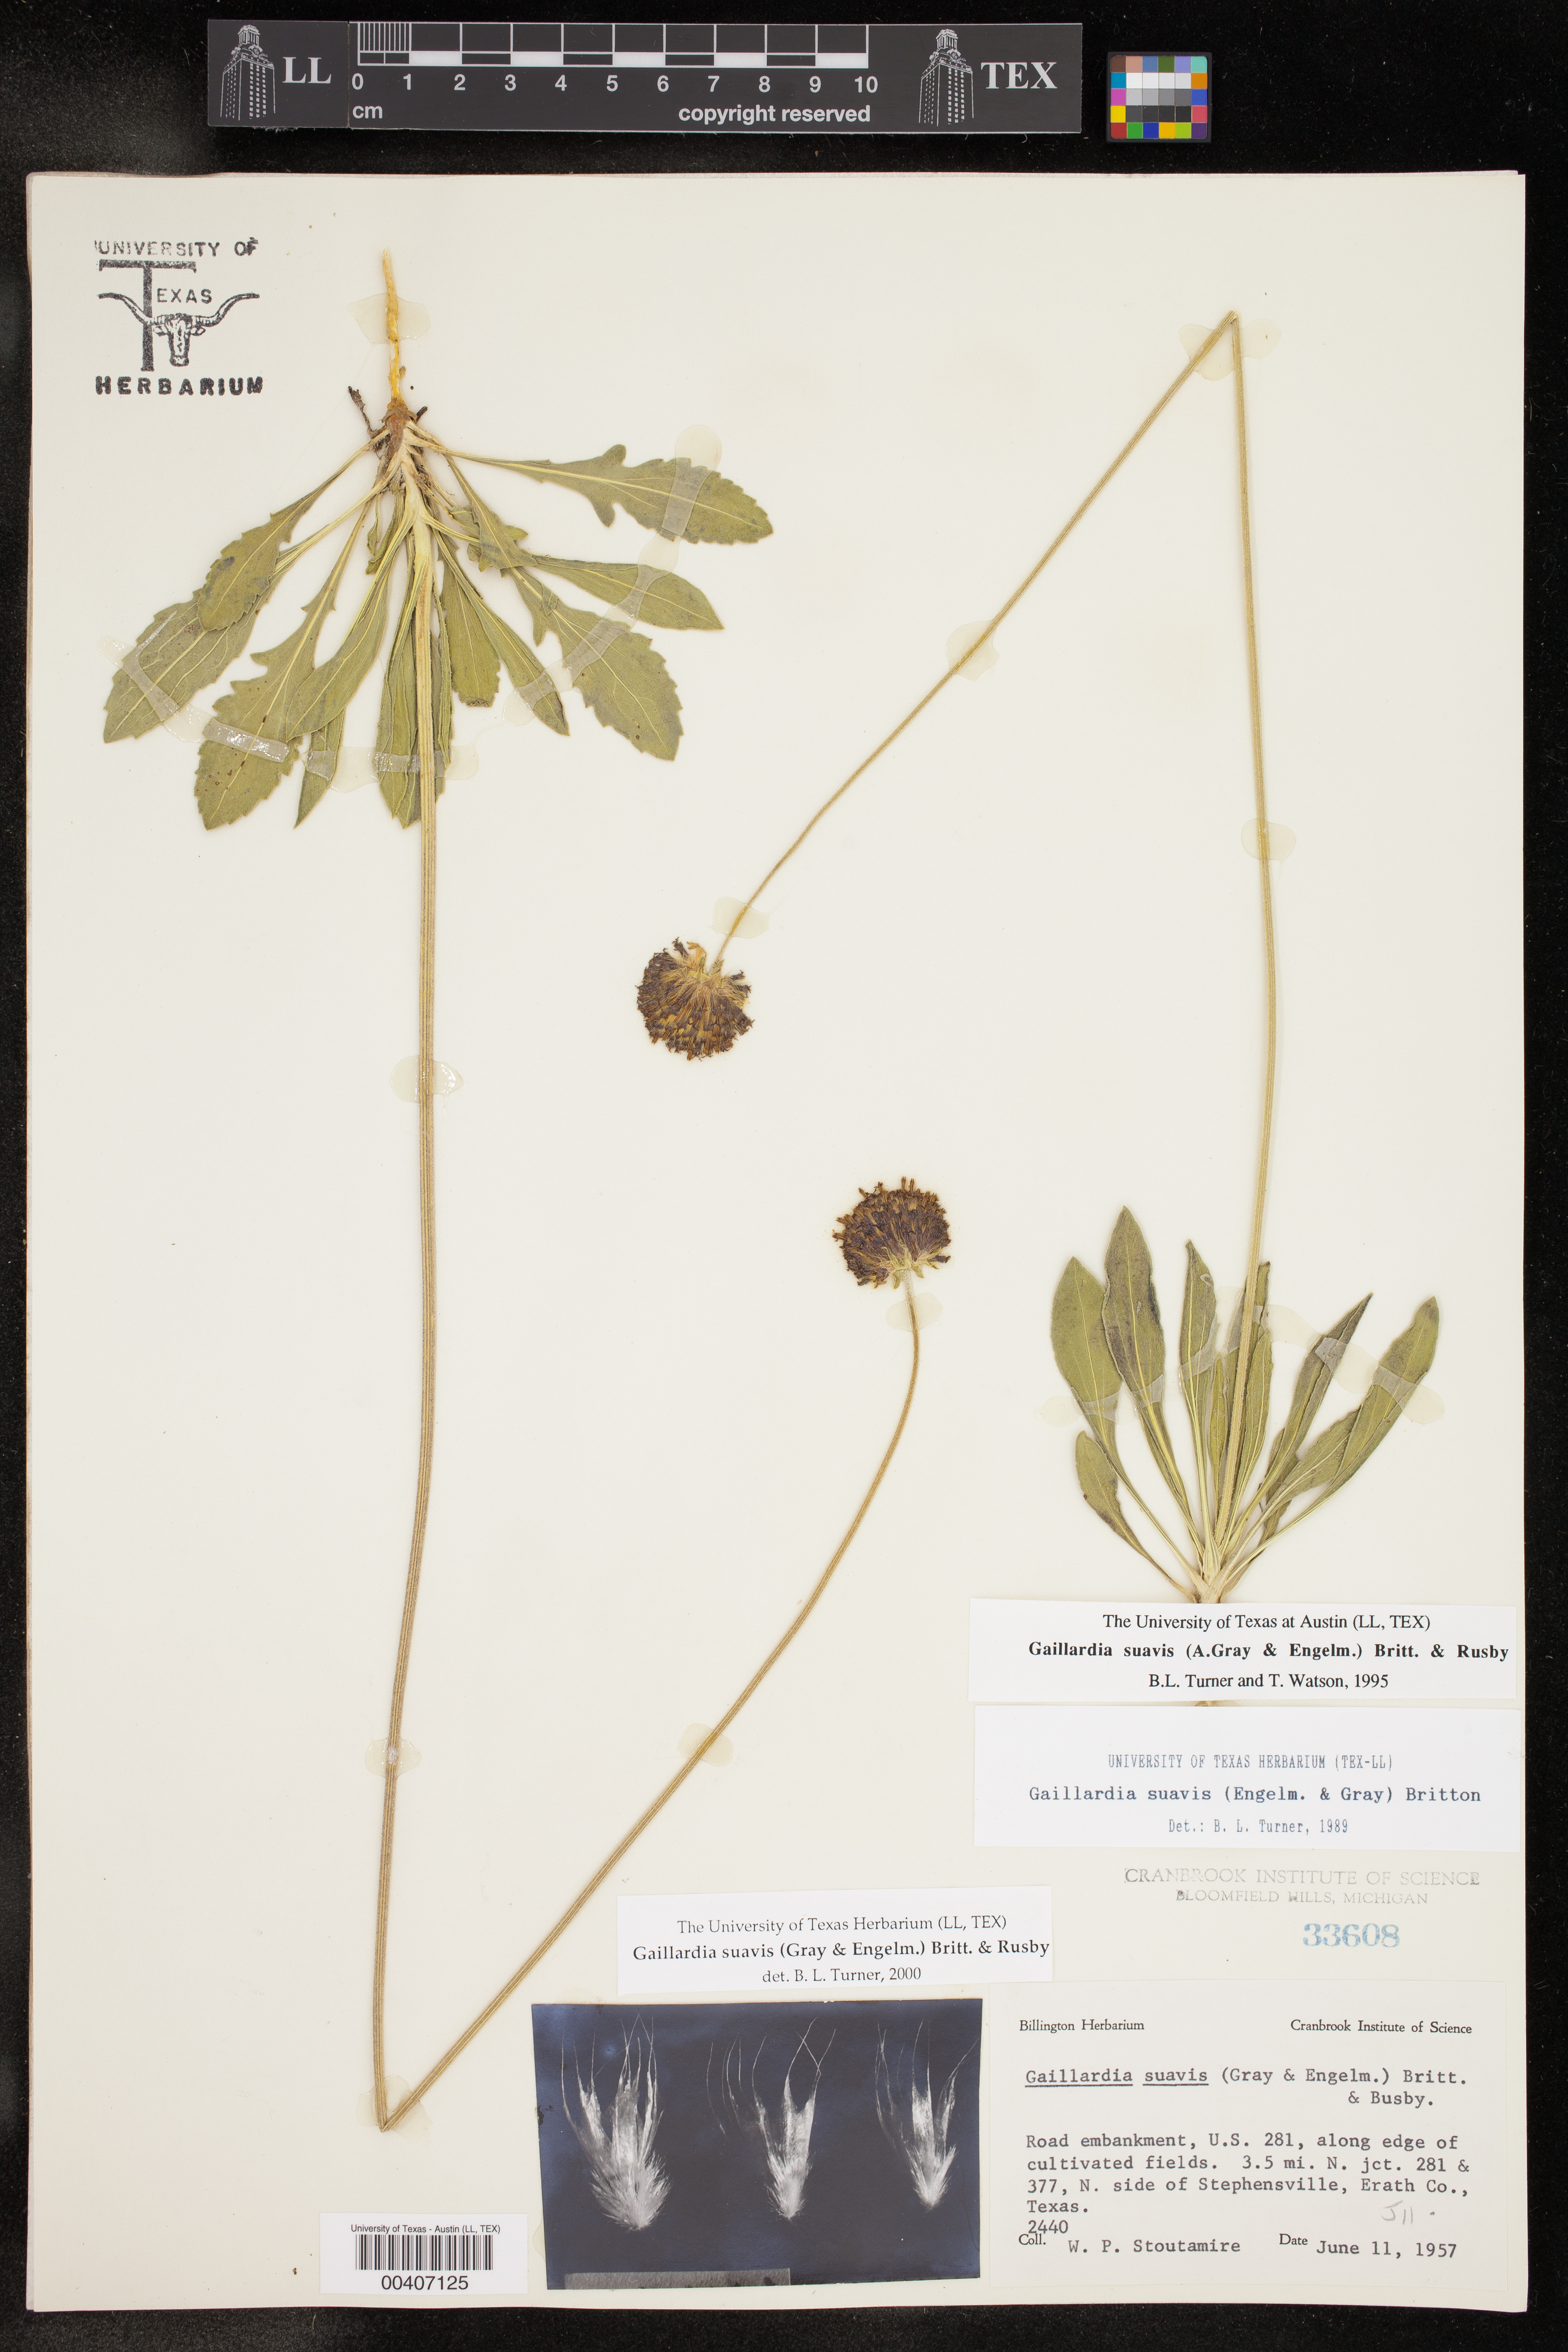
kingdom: Plantae
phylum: Tracheophyta
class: Magnoliopsida
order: Asterales
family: Asteraceae
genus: Gaillardia
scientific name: Gaillardia suavis
